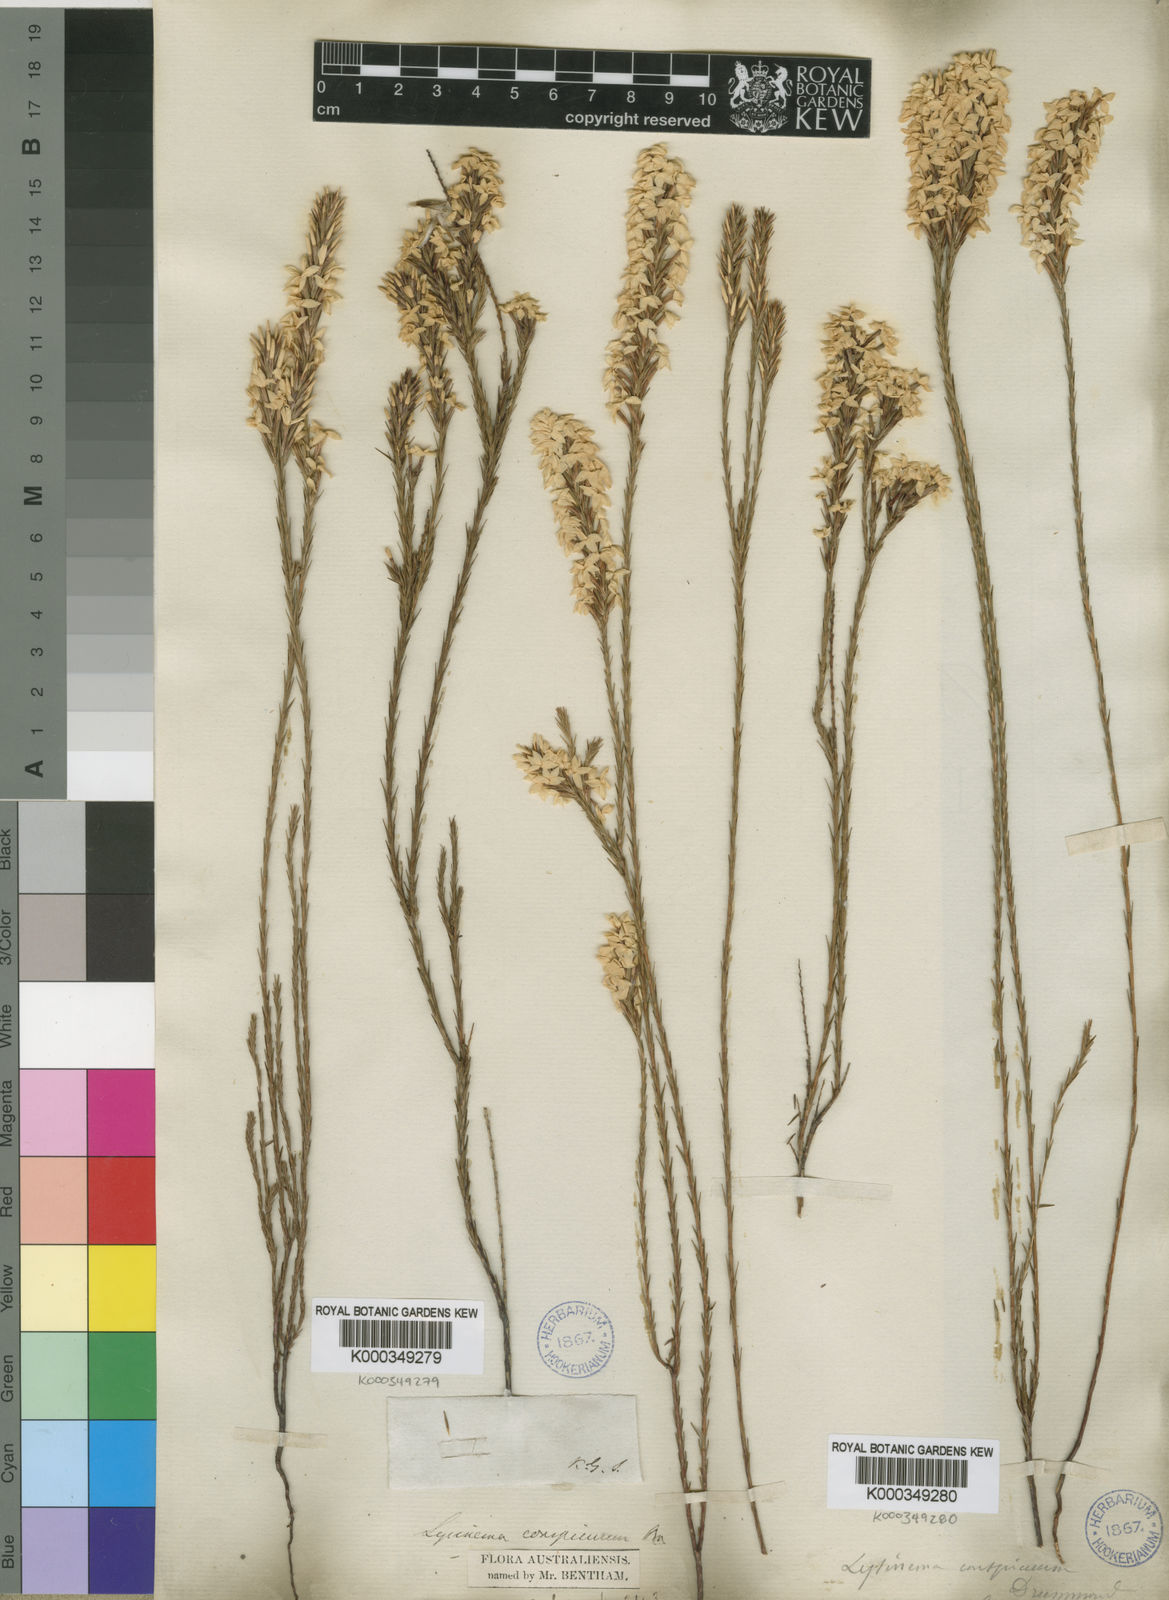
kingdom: Plantae
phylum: Tracheophyta
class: Magnoliopsida
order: Ericales
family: Ericaceae
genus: Lysinema
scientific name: Lysinema conspicuum
